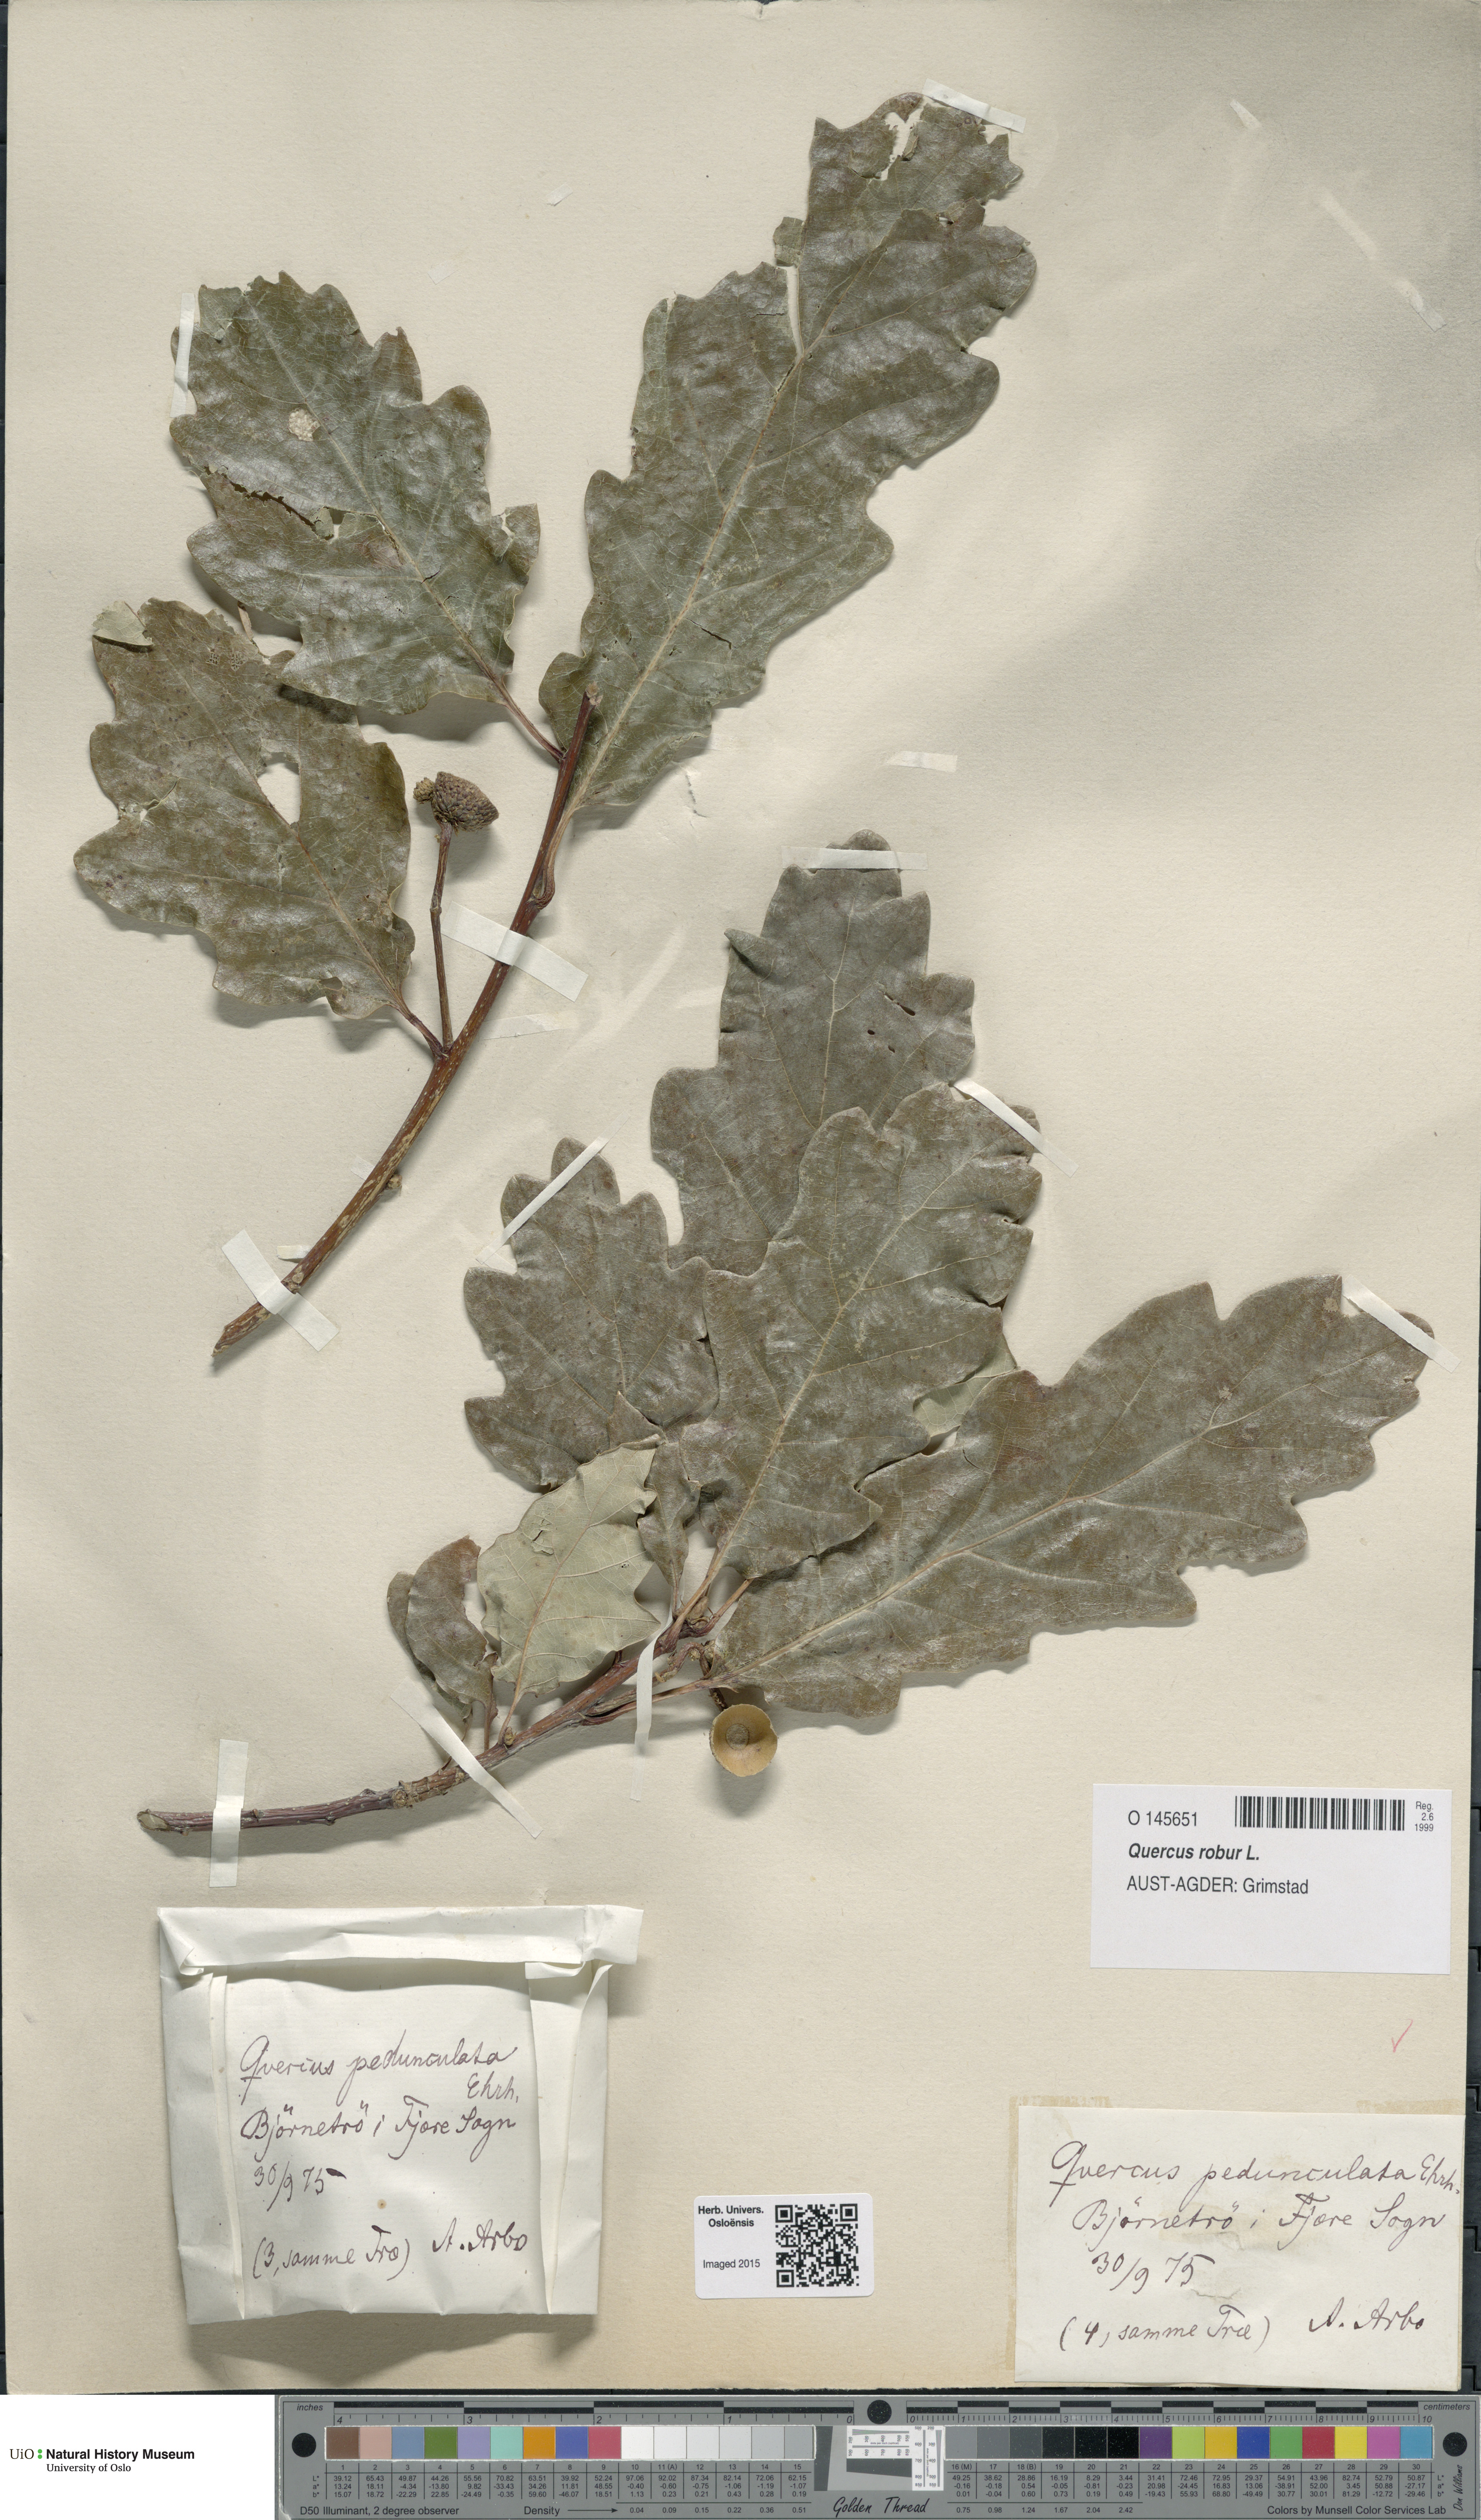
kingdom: Plantae
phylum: Tracheophyta
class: Magnoliopsida
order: Fagales
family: Fagaceae
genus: Quercus
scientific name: Quercus robur
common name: Pedunculate oak
